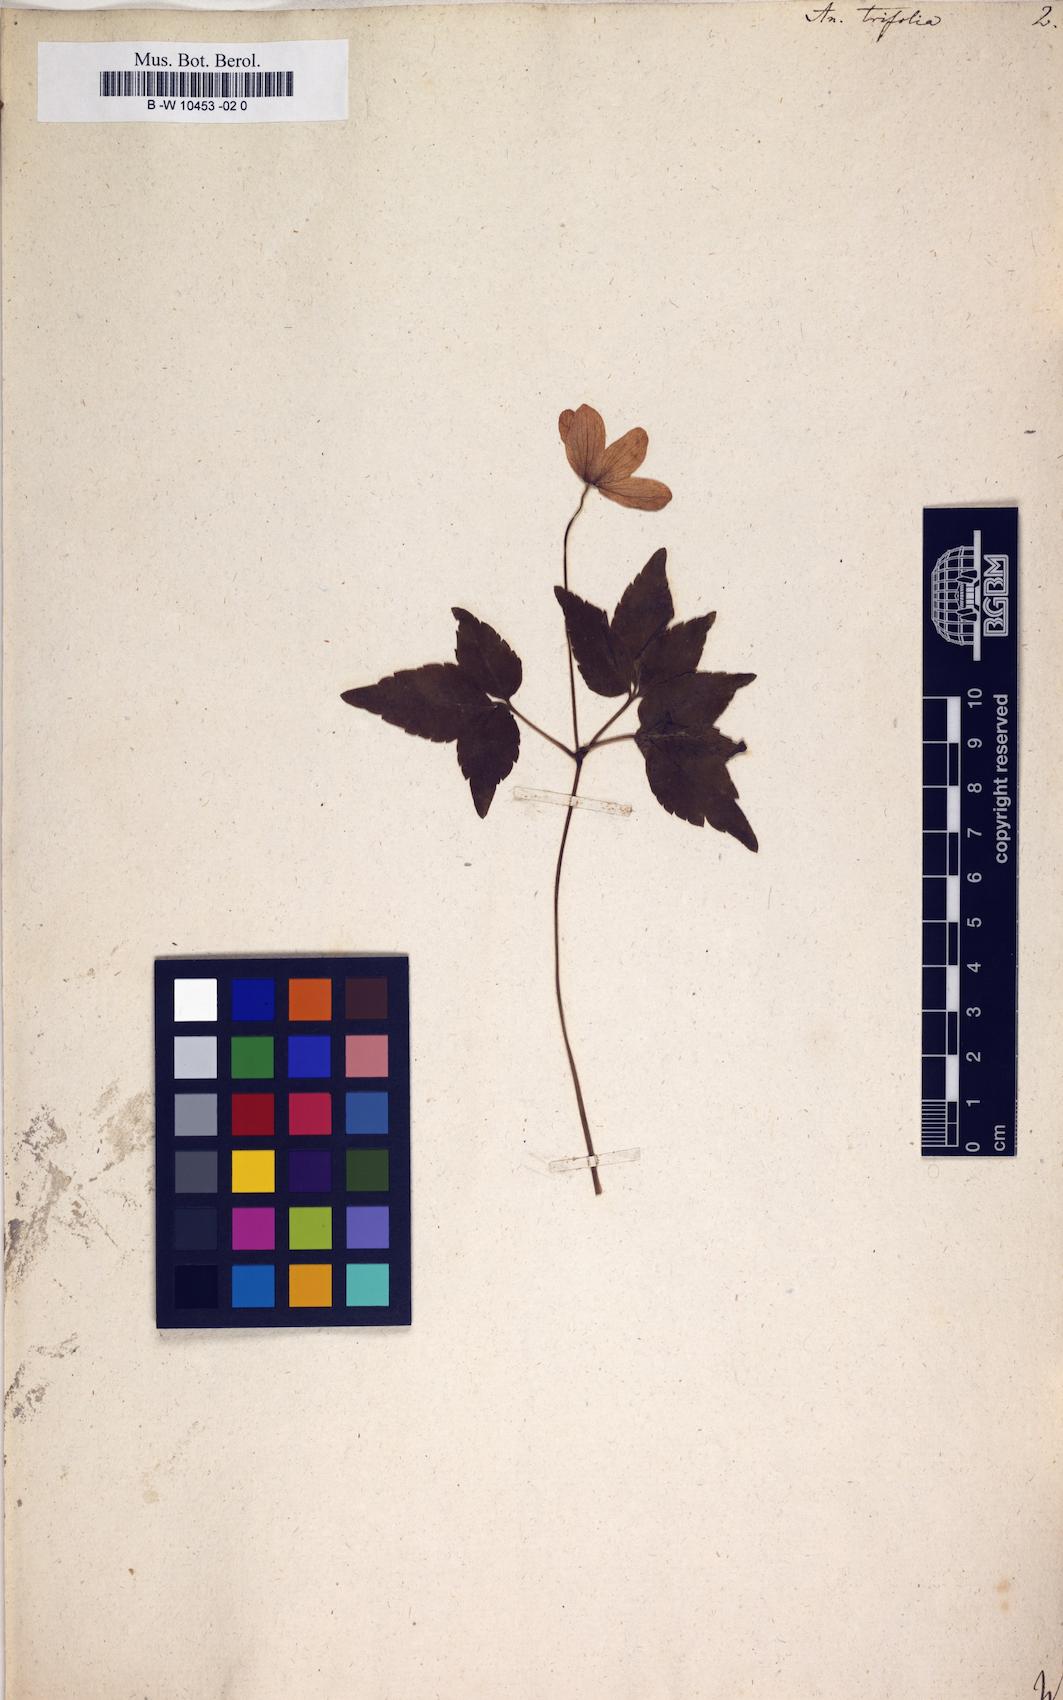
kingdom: Plantae
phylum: Tracheophyta
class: Magnoliopsida
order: Ranunculales
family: Ranunculaceae
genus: Anemone
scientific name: Anemone trifolia
